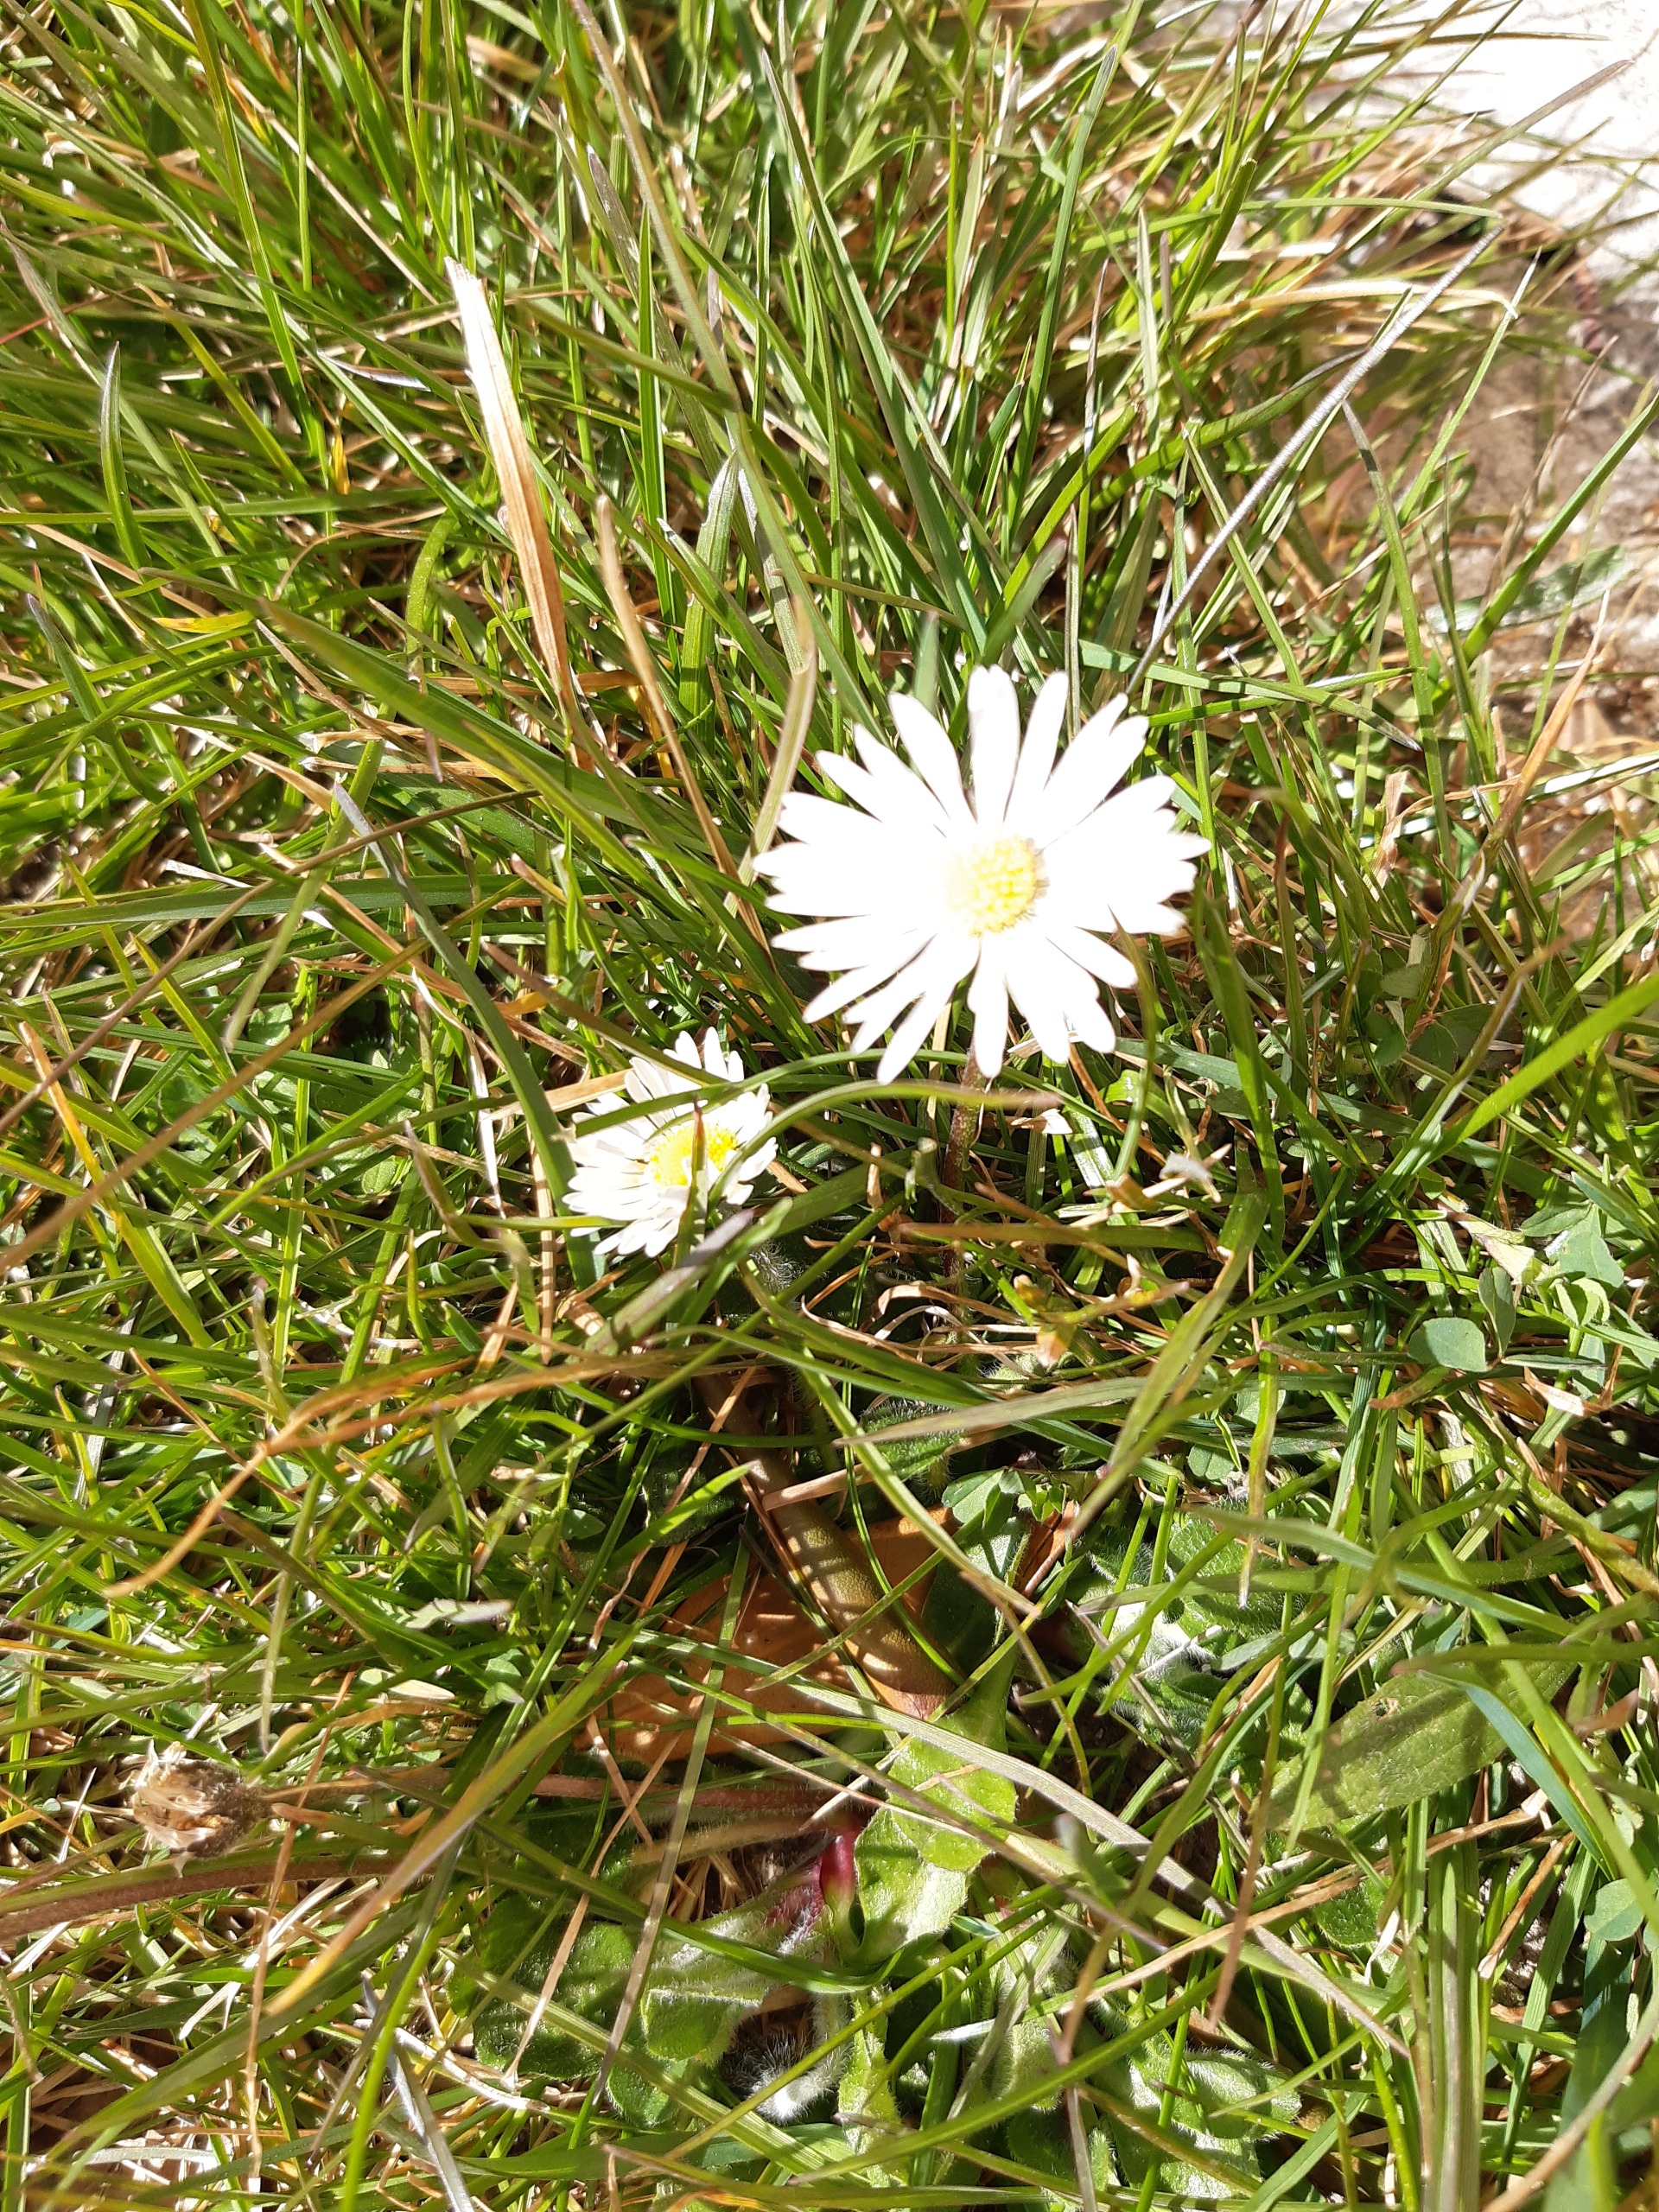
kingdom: Plantae
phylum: Tracheophyta
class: Magnoliopsida
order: Asterales
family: Asteraceae
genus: Bellis
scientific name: Bellis perennis
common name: Tusindfryd
